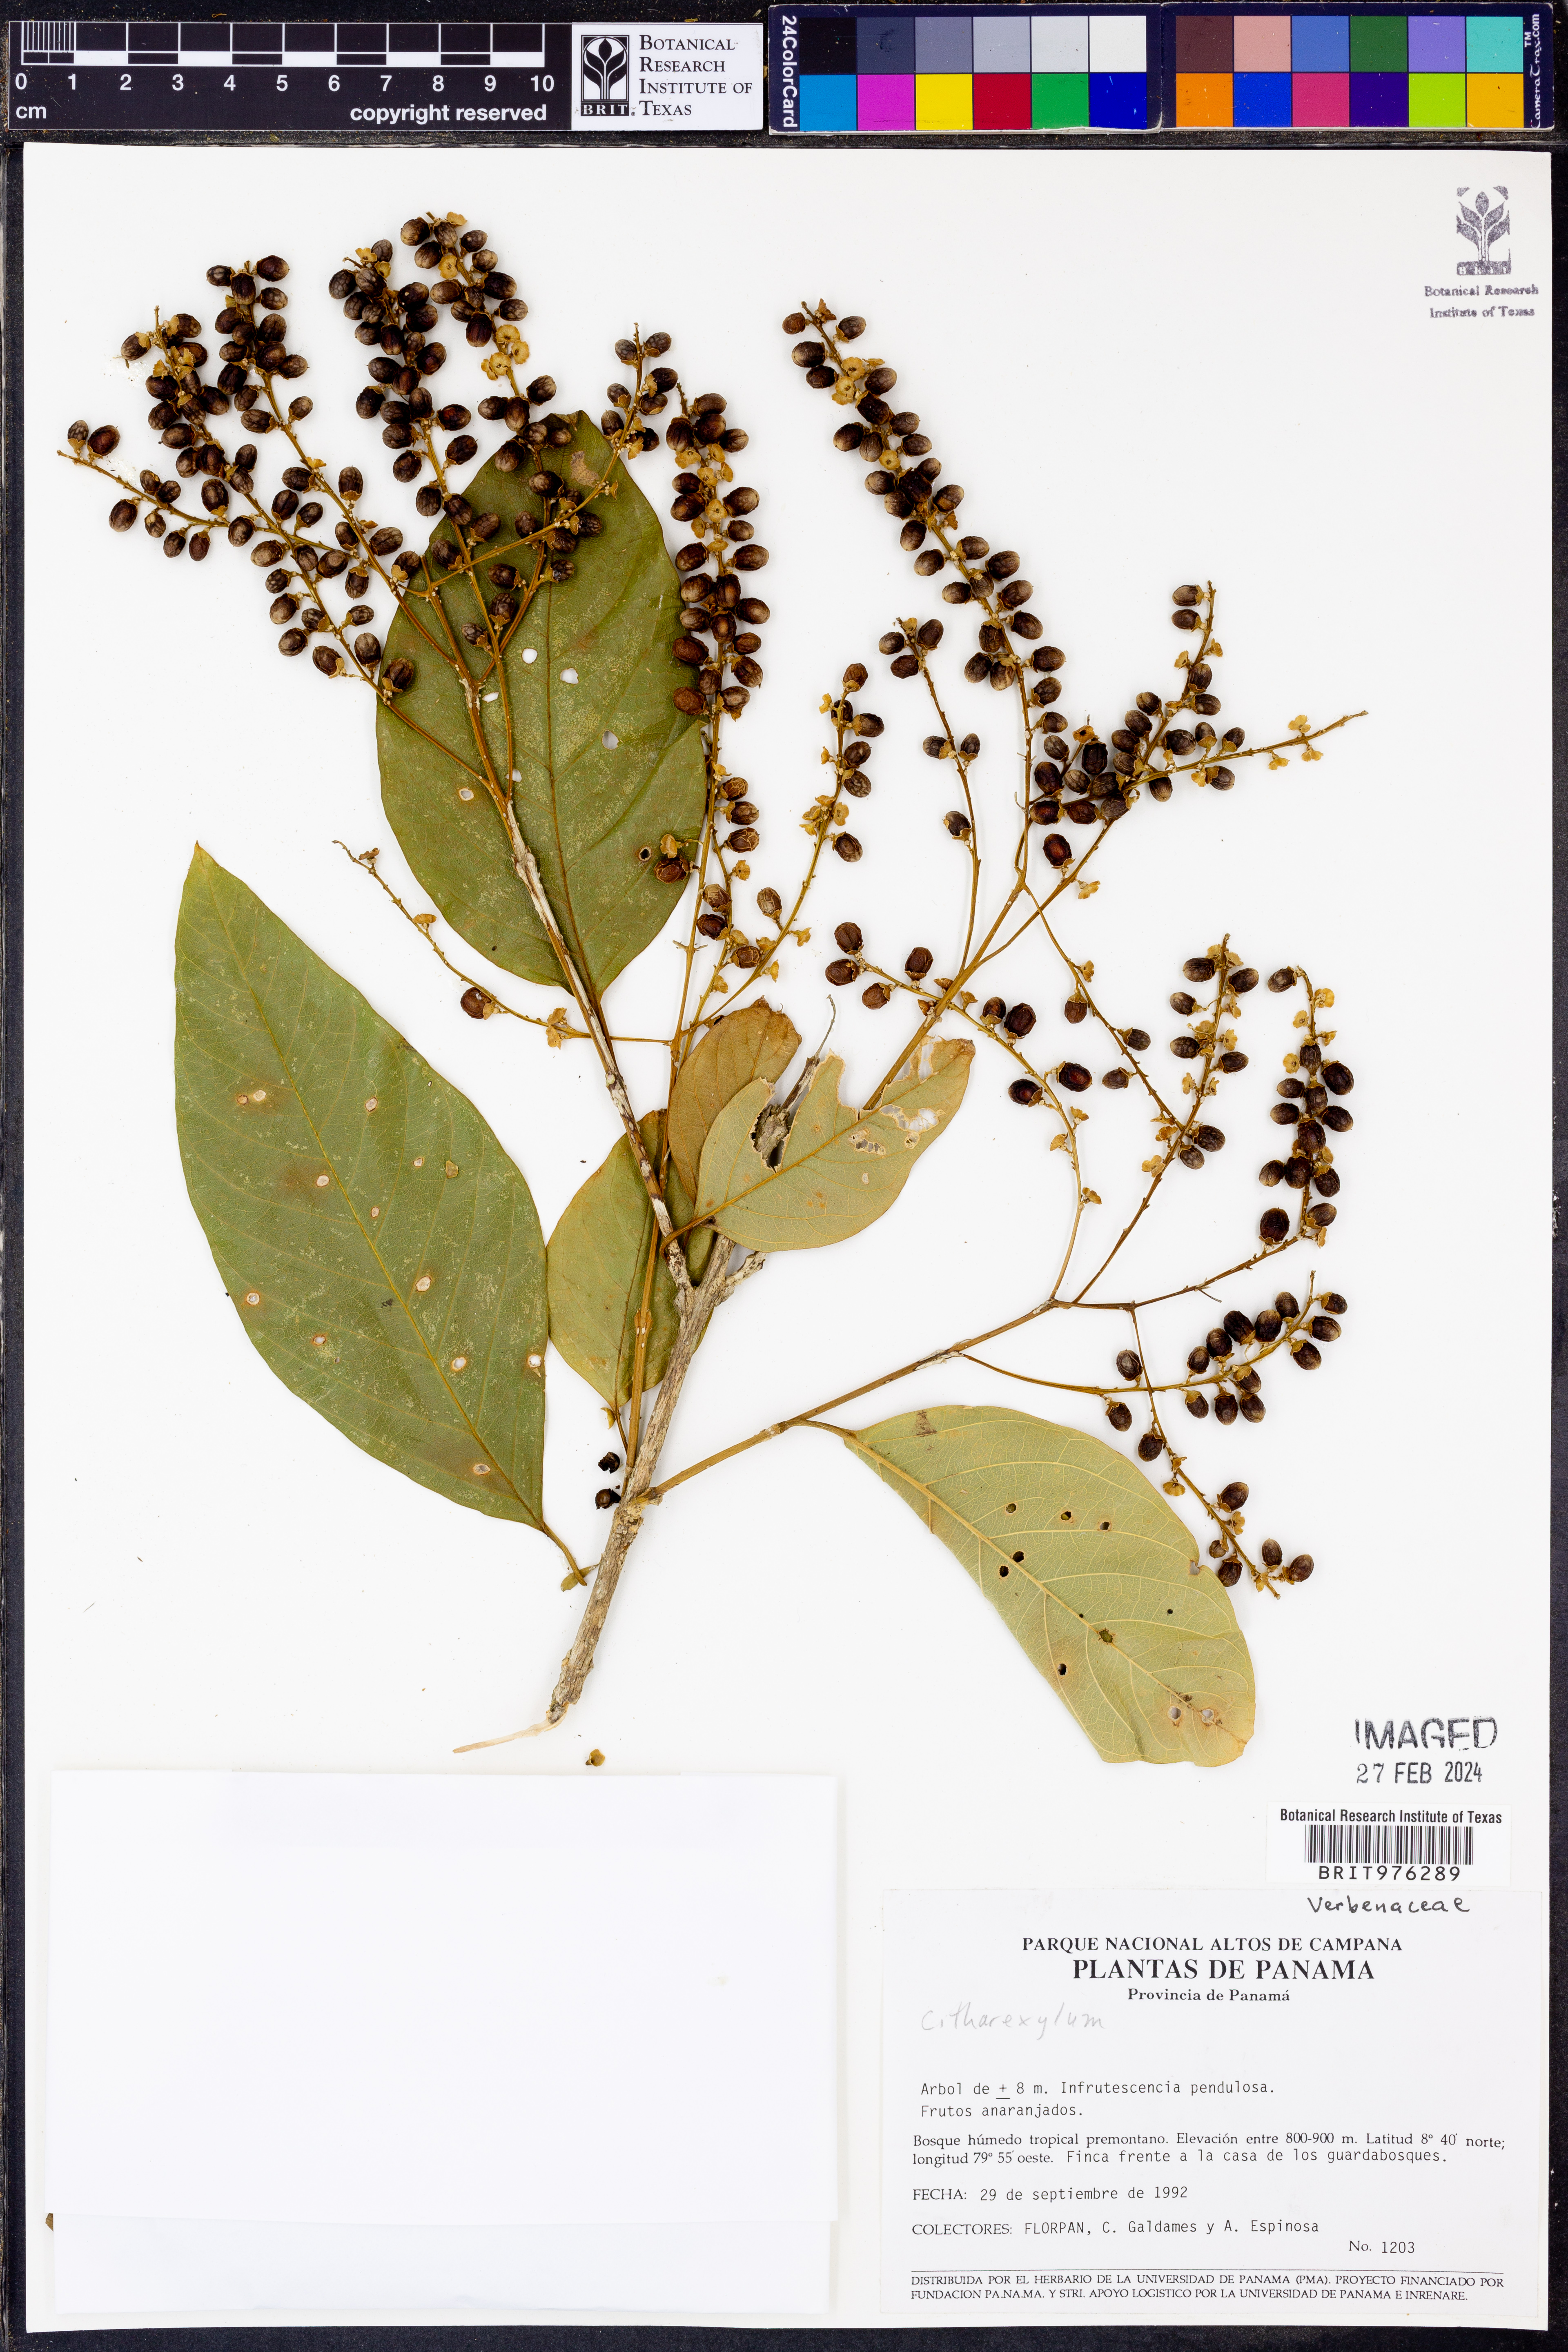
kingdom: Plantae
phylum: Tracheophyta
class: Magnoliopsida
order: Lamiales
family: Verbenaceae
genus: Citharexylum
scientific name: Citharexylum
